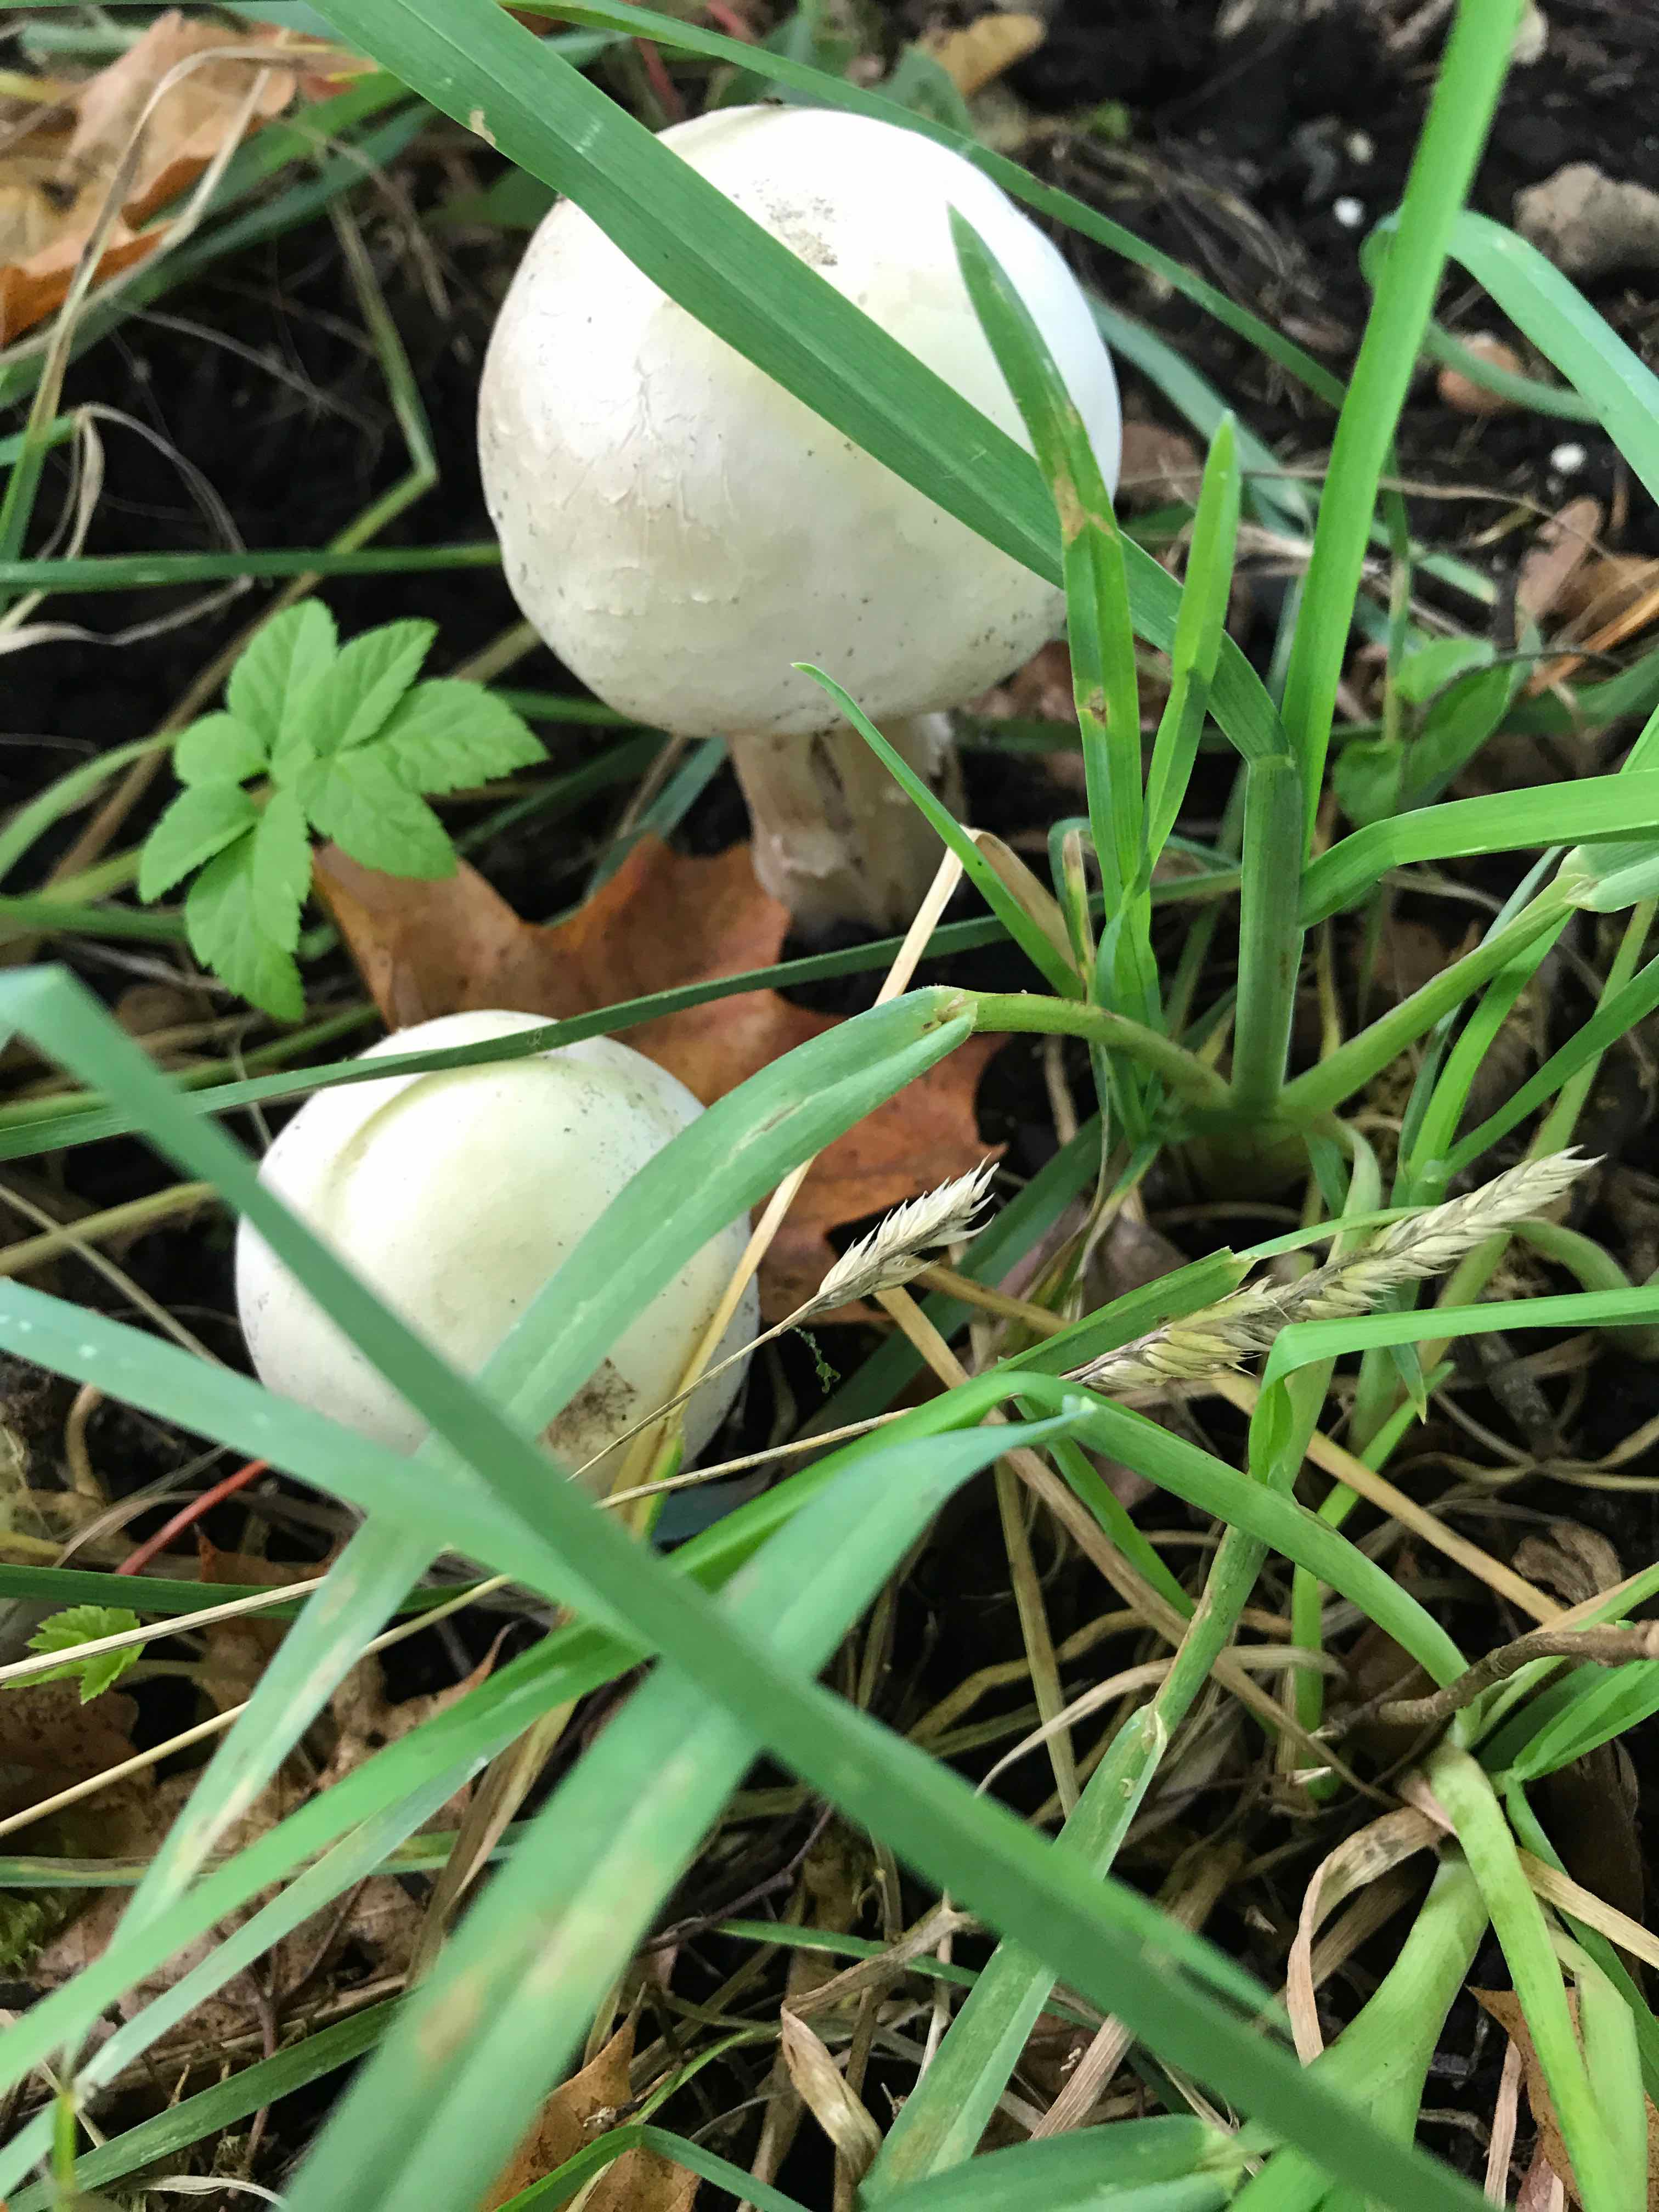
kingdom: Fungi
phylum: Basidiomycota
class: Agaricomycetes
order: Agaricales
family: Agaricaceae
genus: Agaricus
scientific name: Agaricus xanthodermus
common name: karbol-champignon
